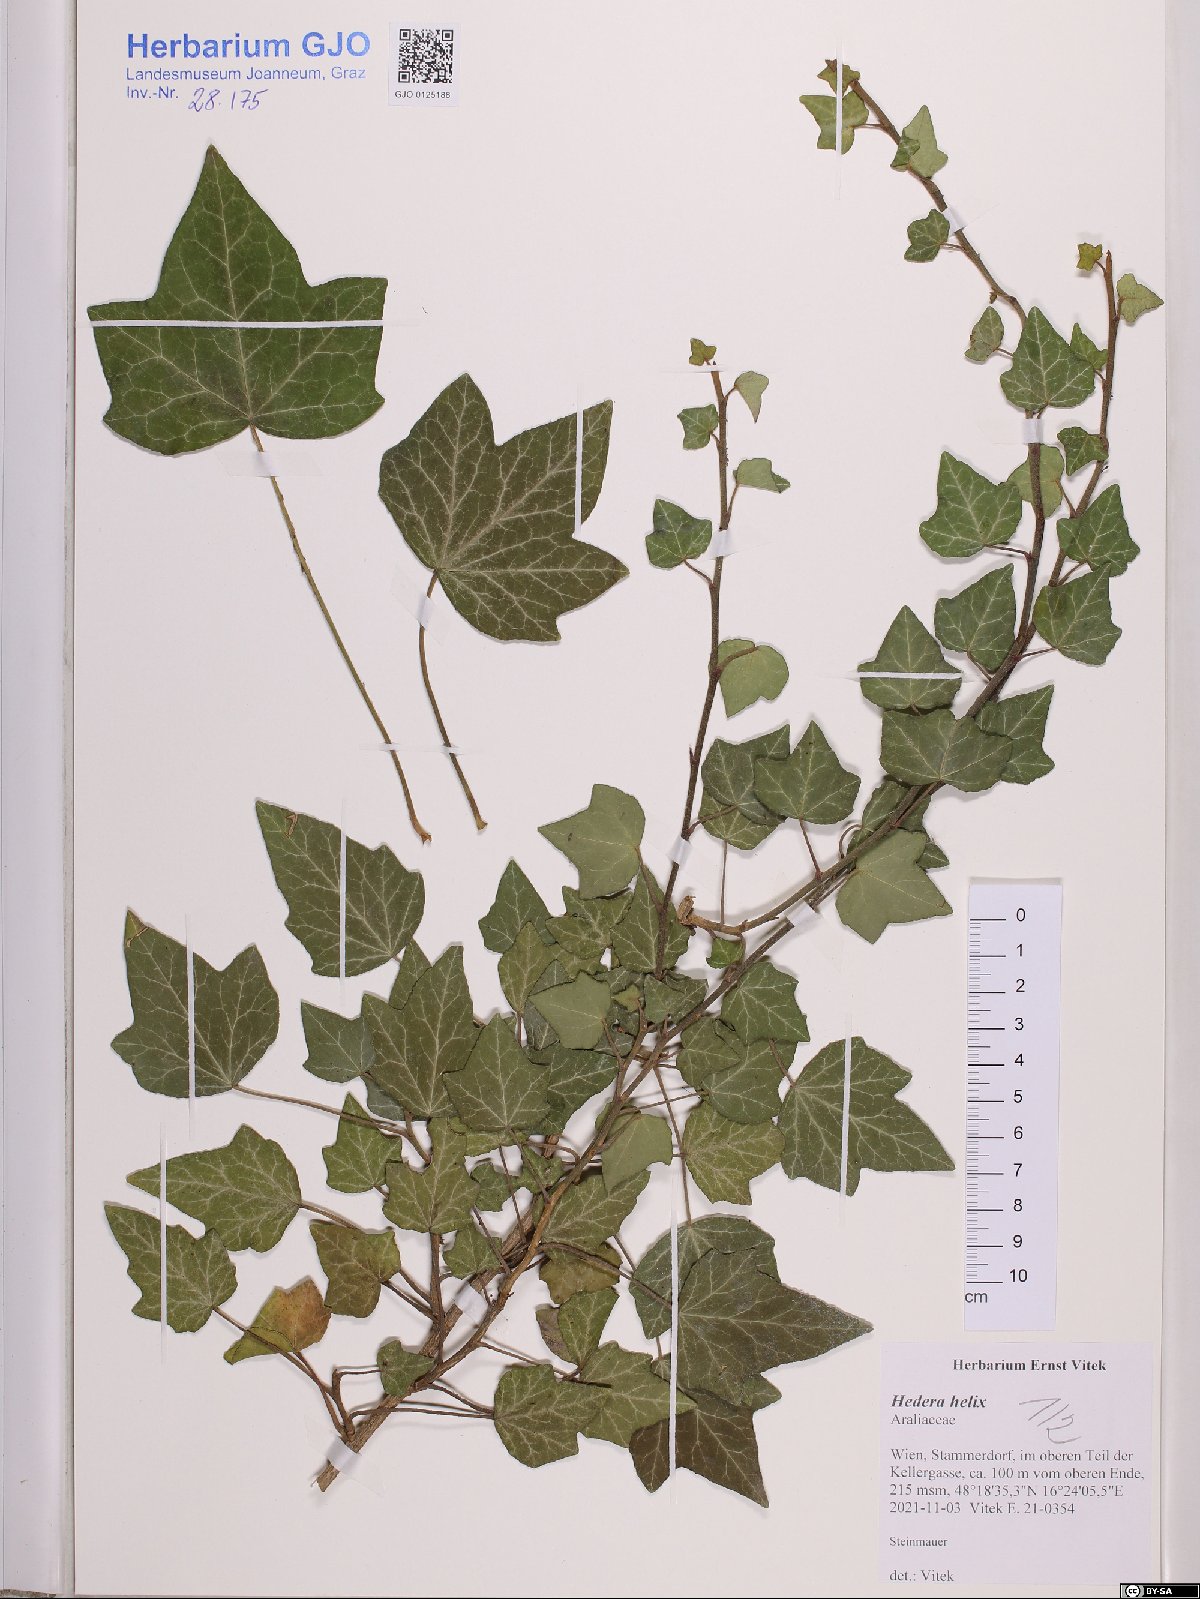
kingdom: Plantae
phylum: Tracheophyta
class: Magnoliopsida
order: Apiales
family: Araliaceae
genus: Hedera
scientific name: Hedera helix
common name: Ivy
